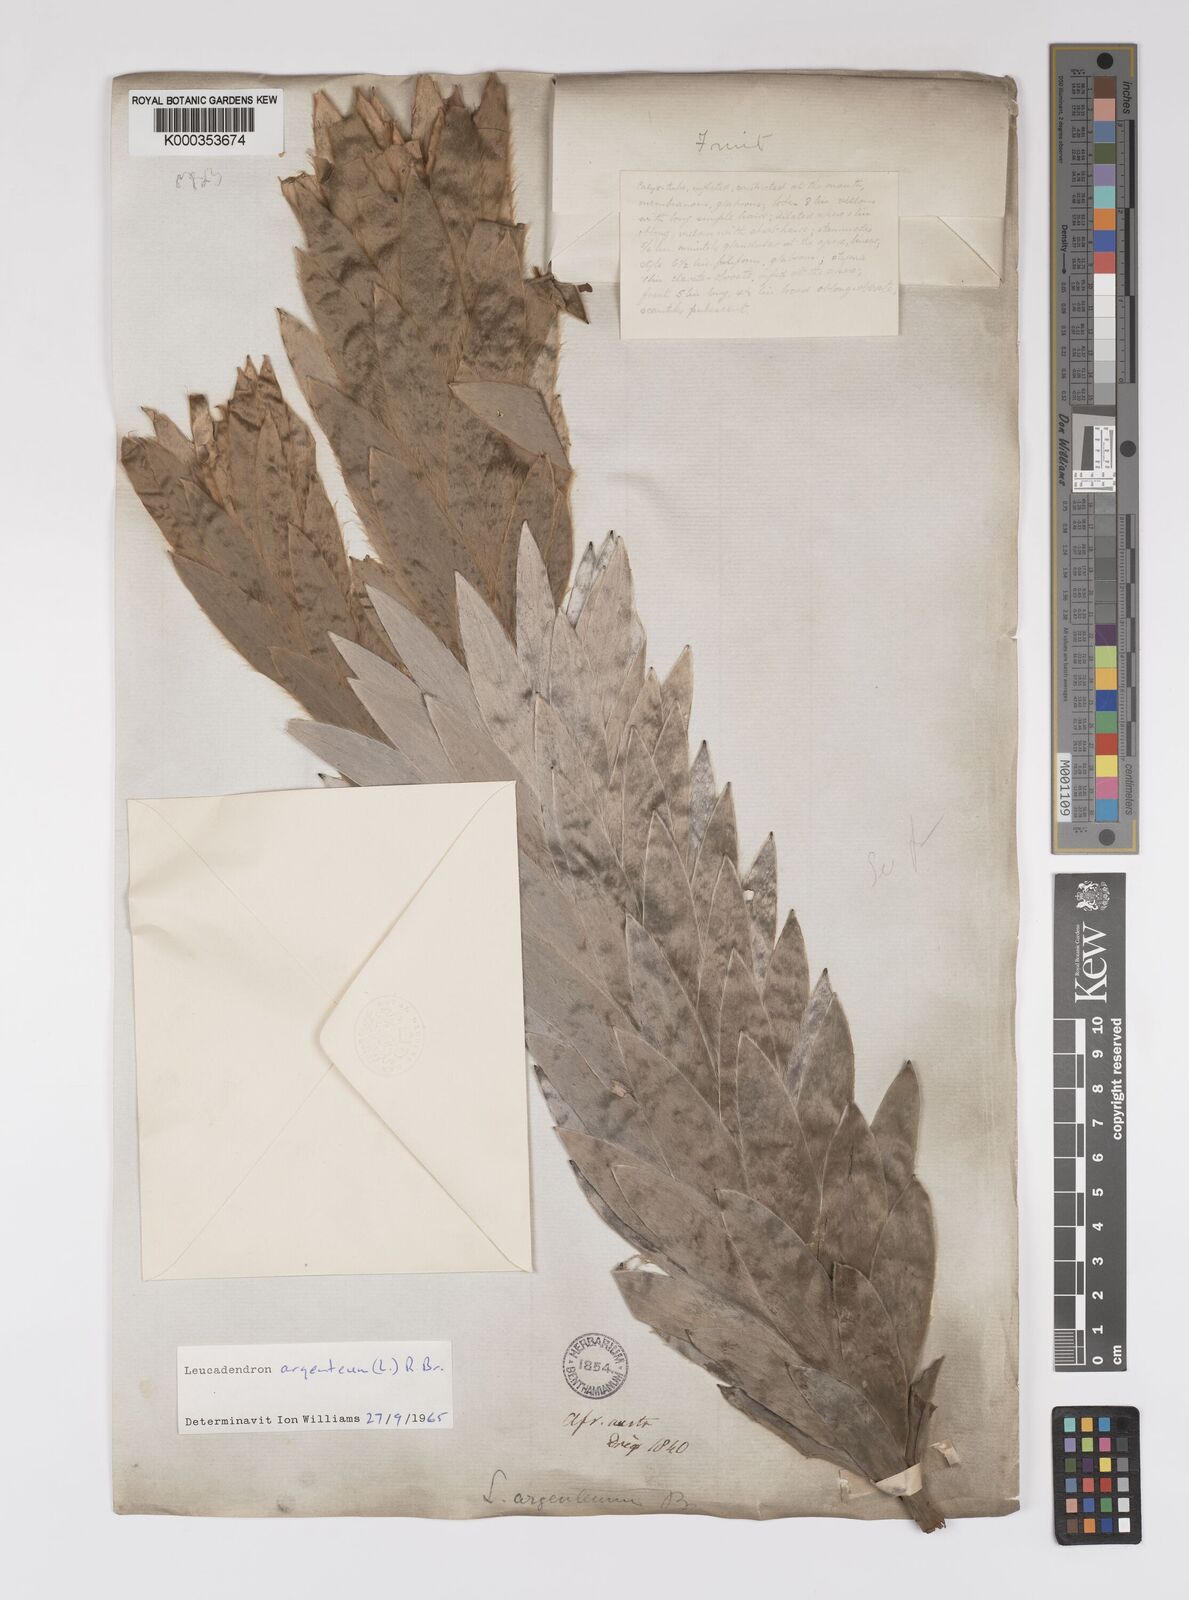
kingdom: Plantae
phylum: Tracheophyta
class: Magnoliopsida
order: Proteales
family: Proteaceae
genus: Leucadendron
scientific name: Leucadendron argenteum
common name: Cape silver tree
